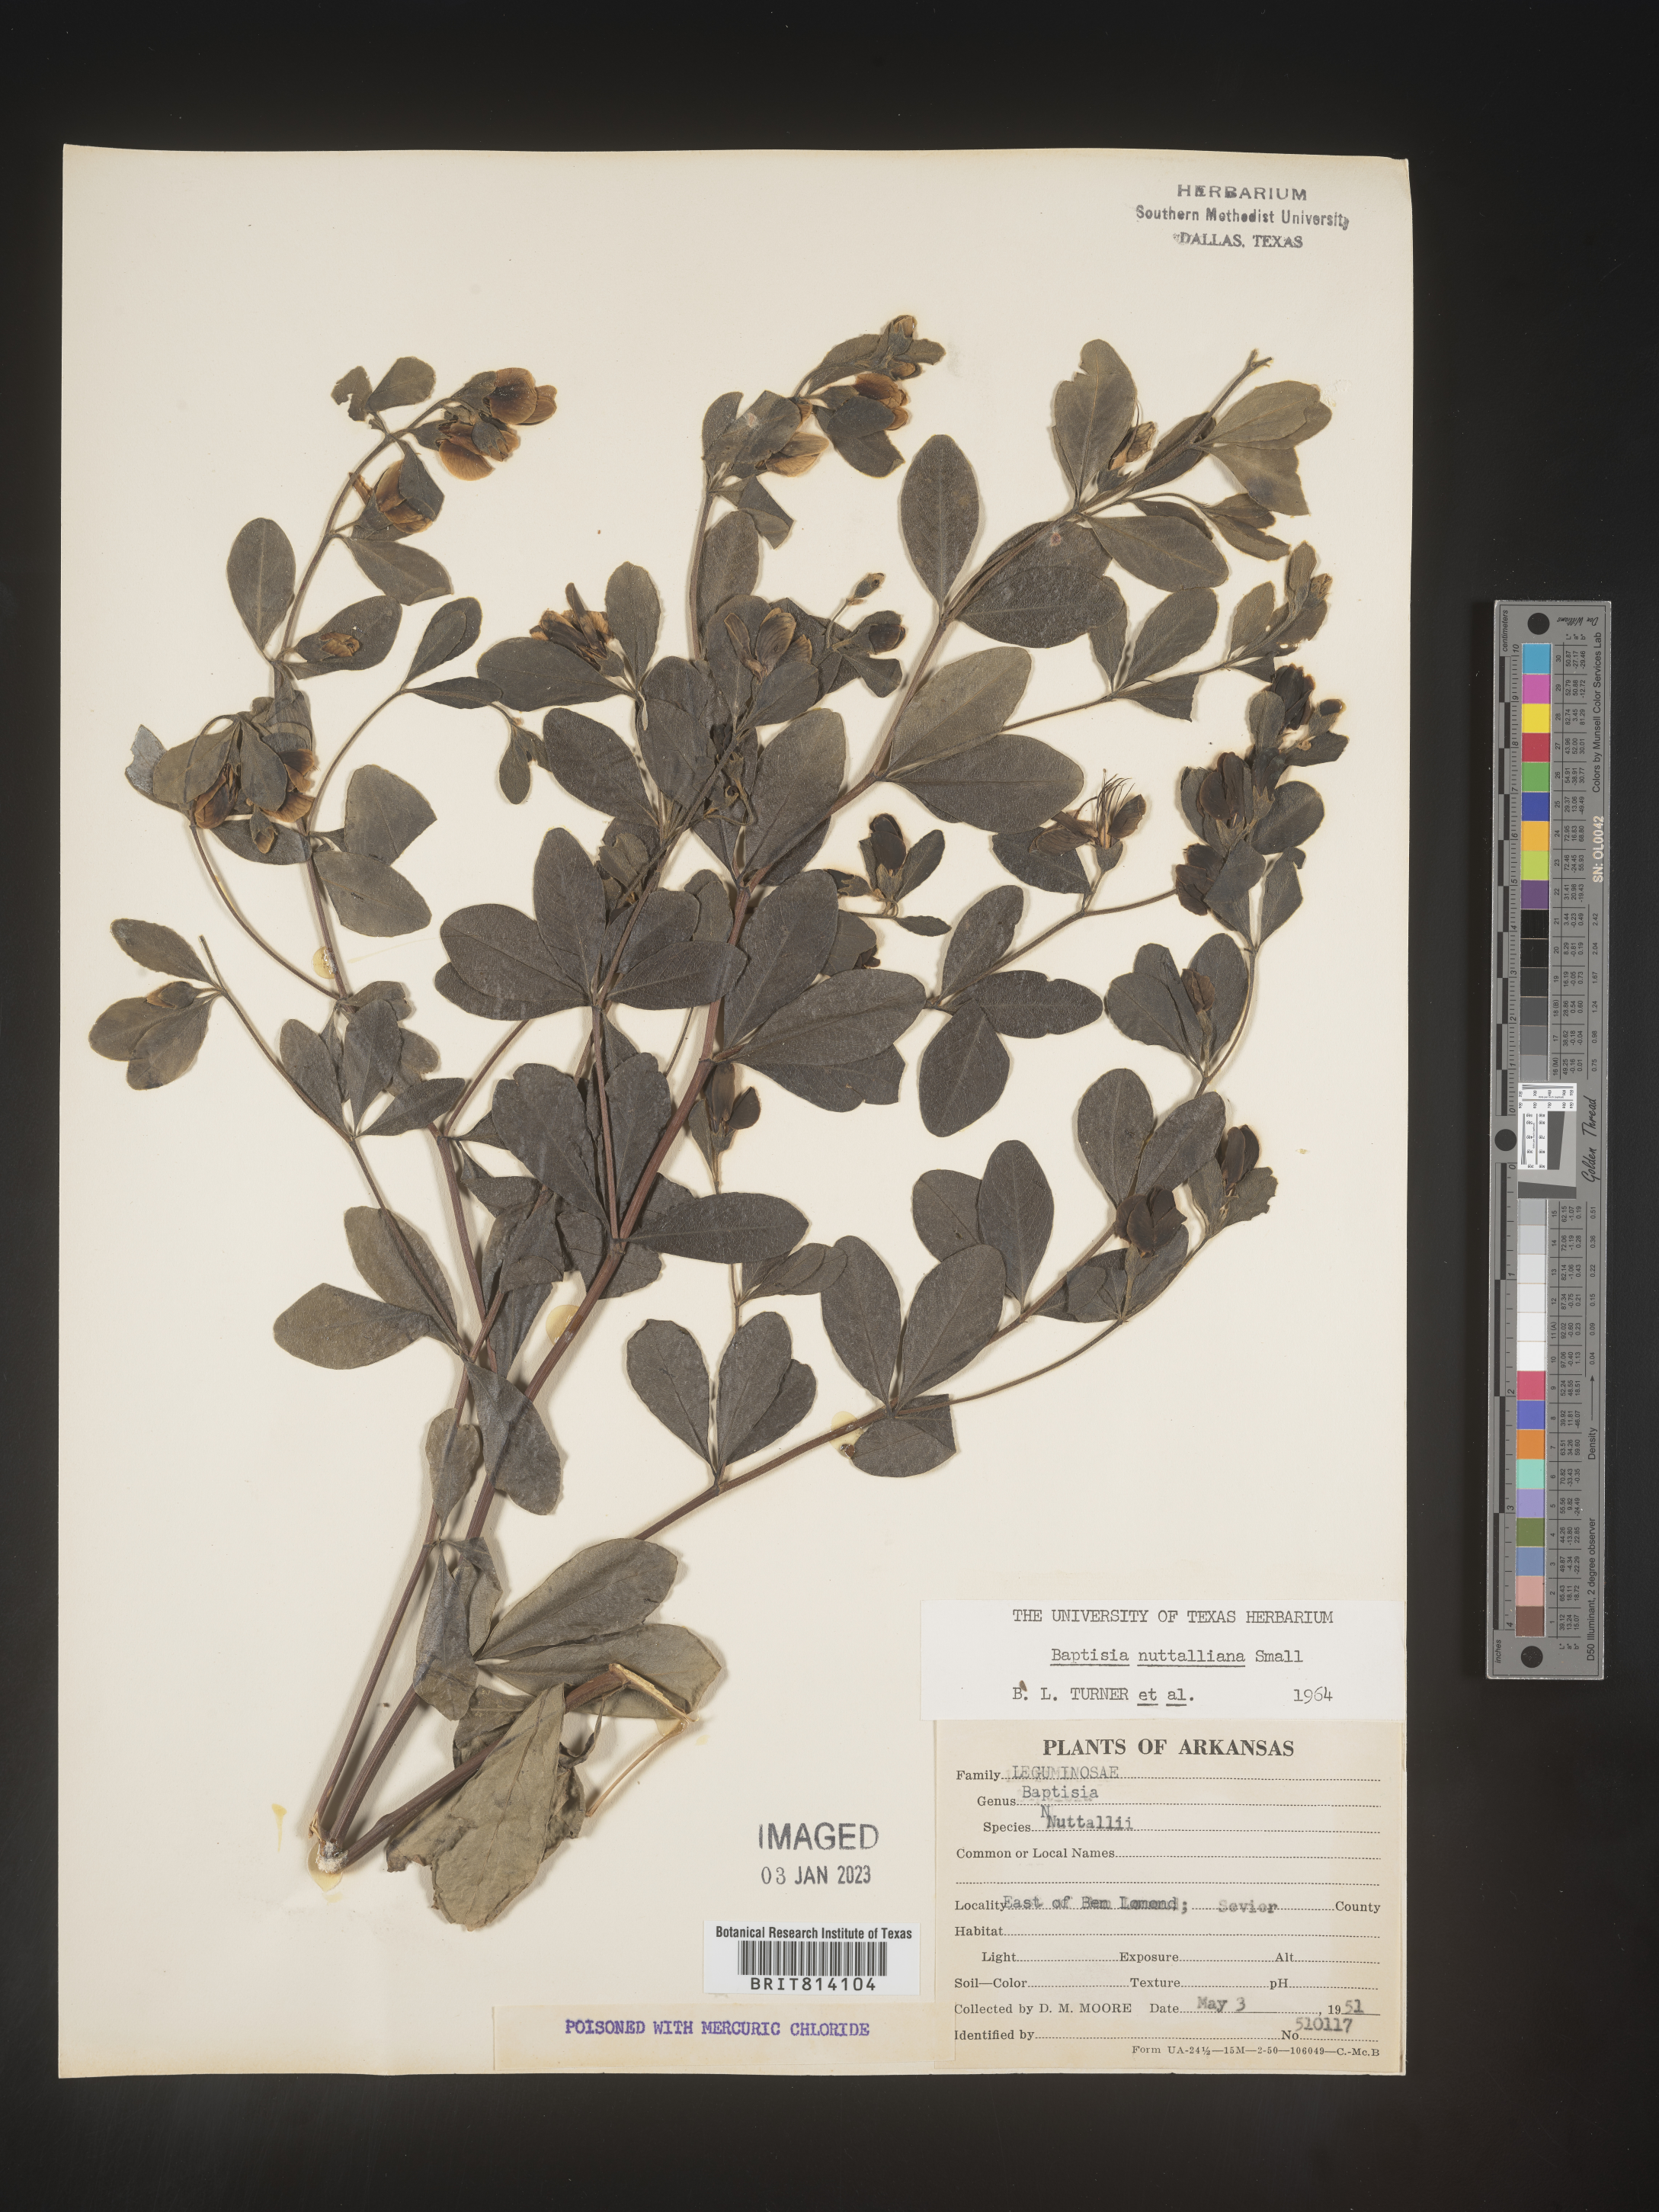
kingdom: Plantae
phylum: Tracheophyta
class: Magnoliopsida
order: Fabales
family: Fabaceae
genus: Baptisia
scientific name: Baptisia nuttalliana
